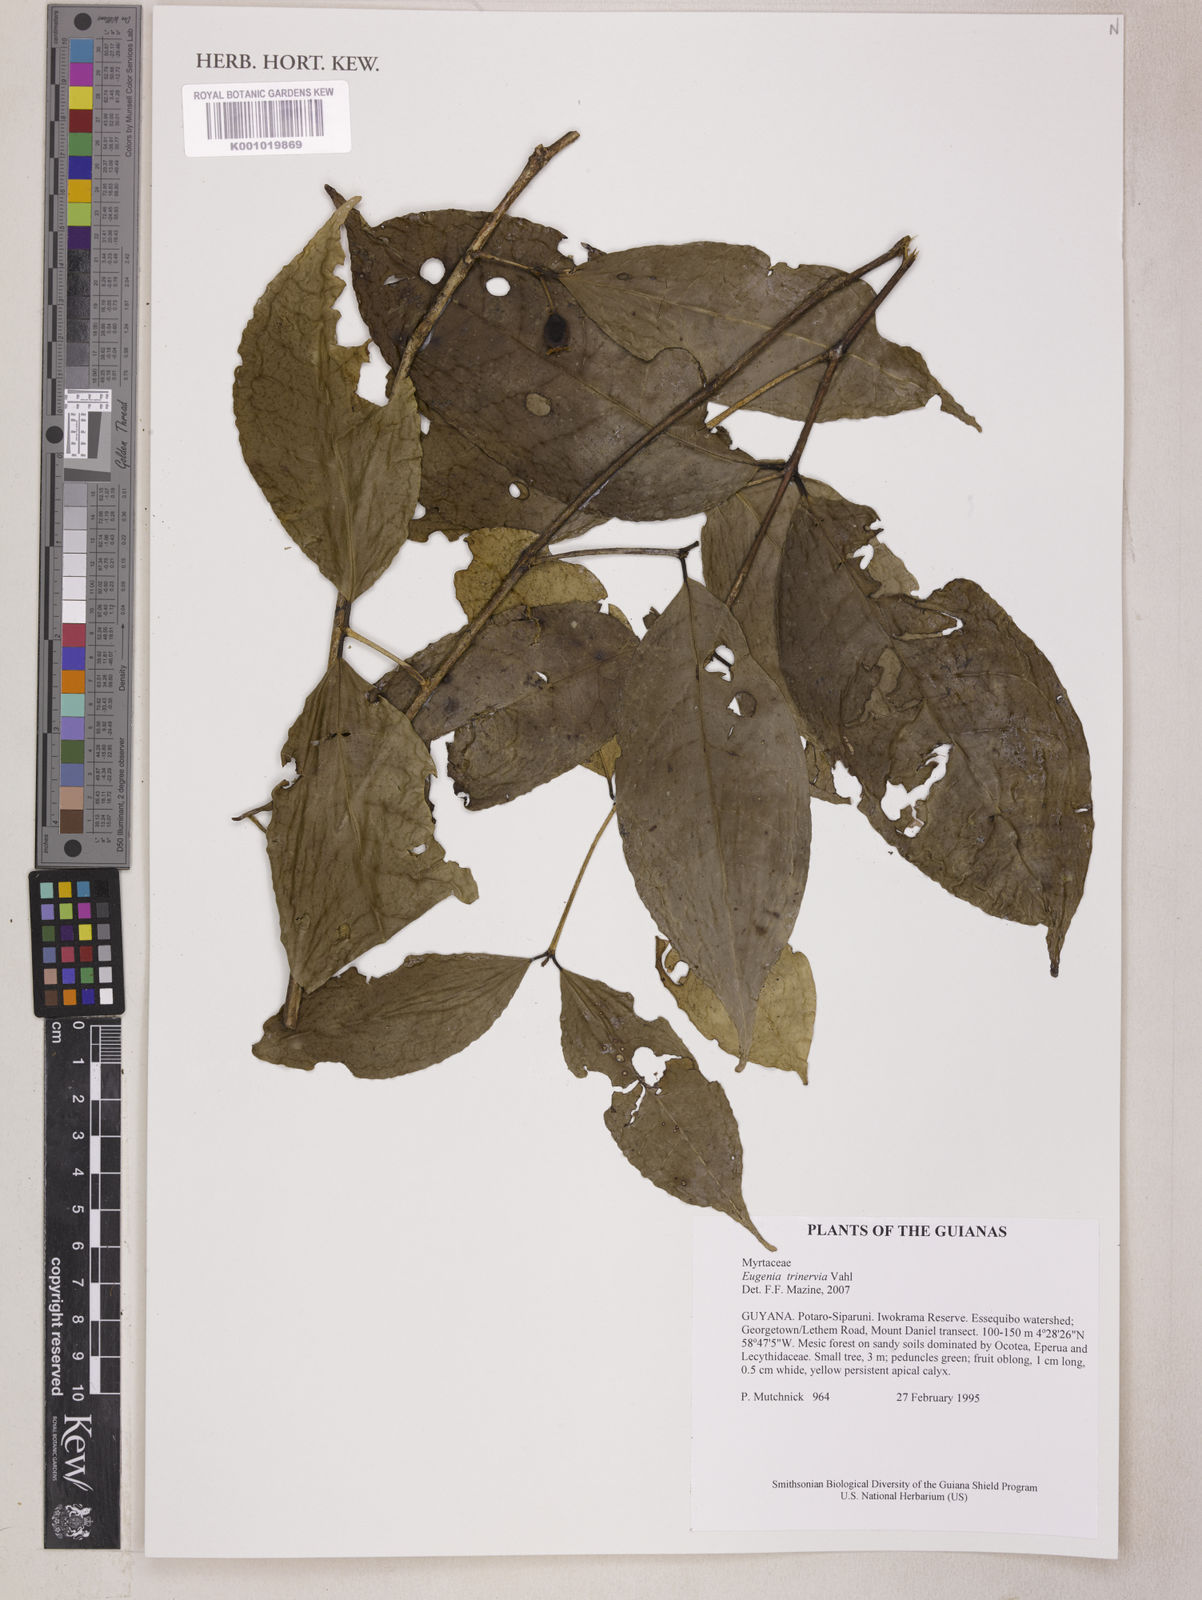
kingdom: Plantae
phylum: Tracheophyta
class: Magnoliopsida
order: Myrtales
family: Myrtaceae
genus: Eugenia
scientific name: Eugenia trinervia
